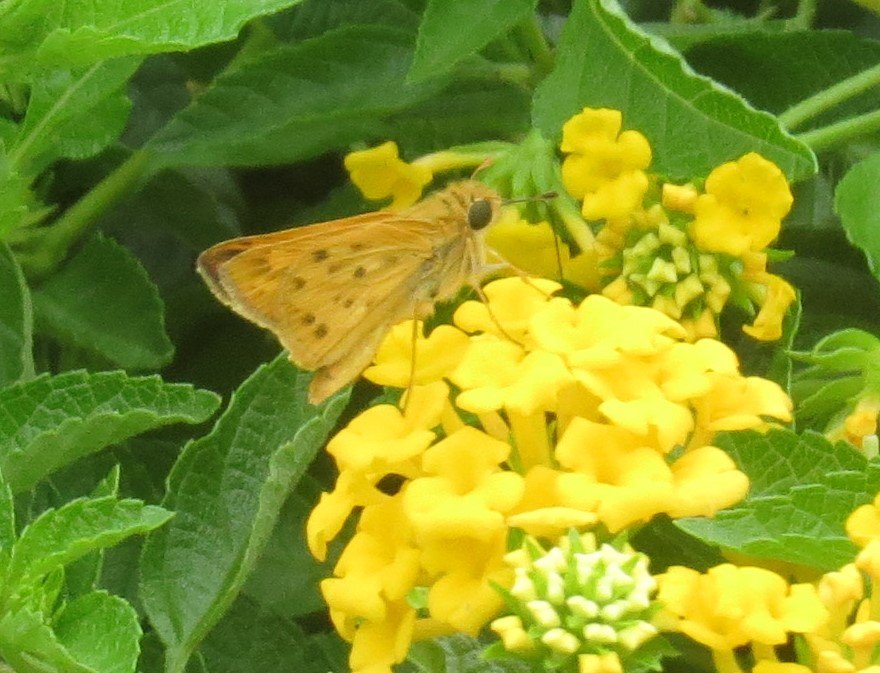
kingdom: Animalia
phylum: Arthropoda
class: Insecta
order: Lepidoptera
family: Hesperiidae
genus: Hylephila
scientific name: Hylephila phyleus
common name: Fiery Skipper
